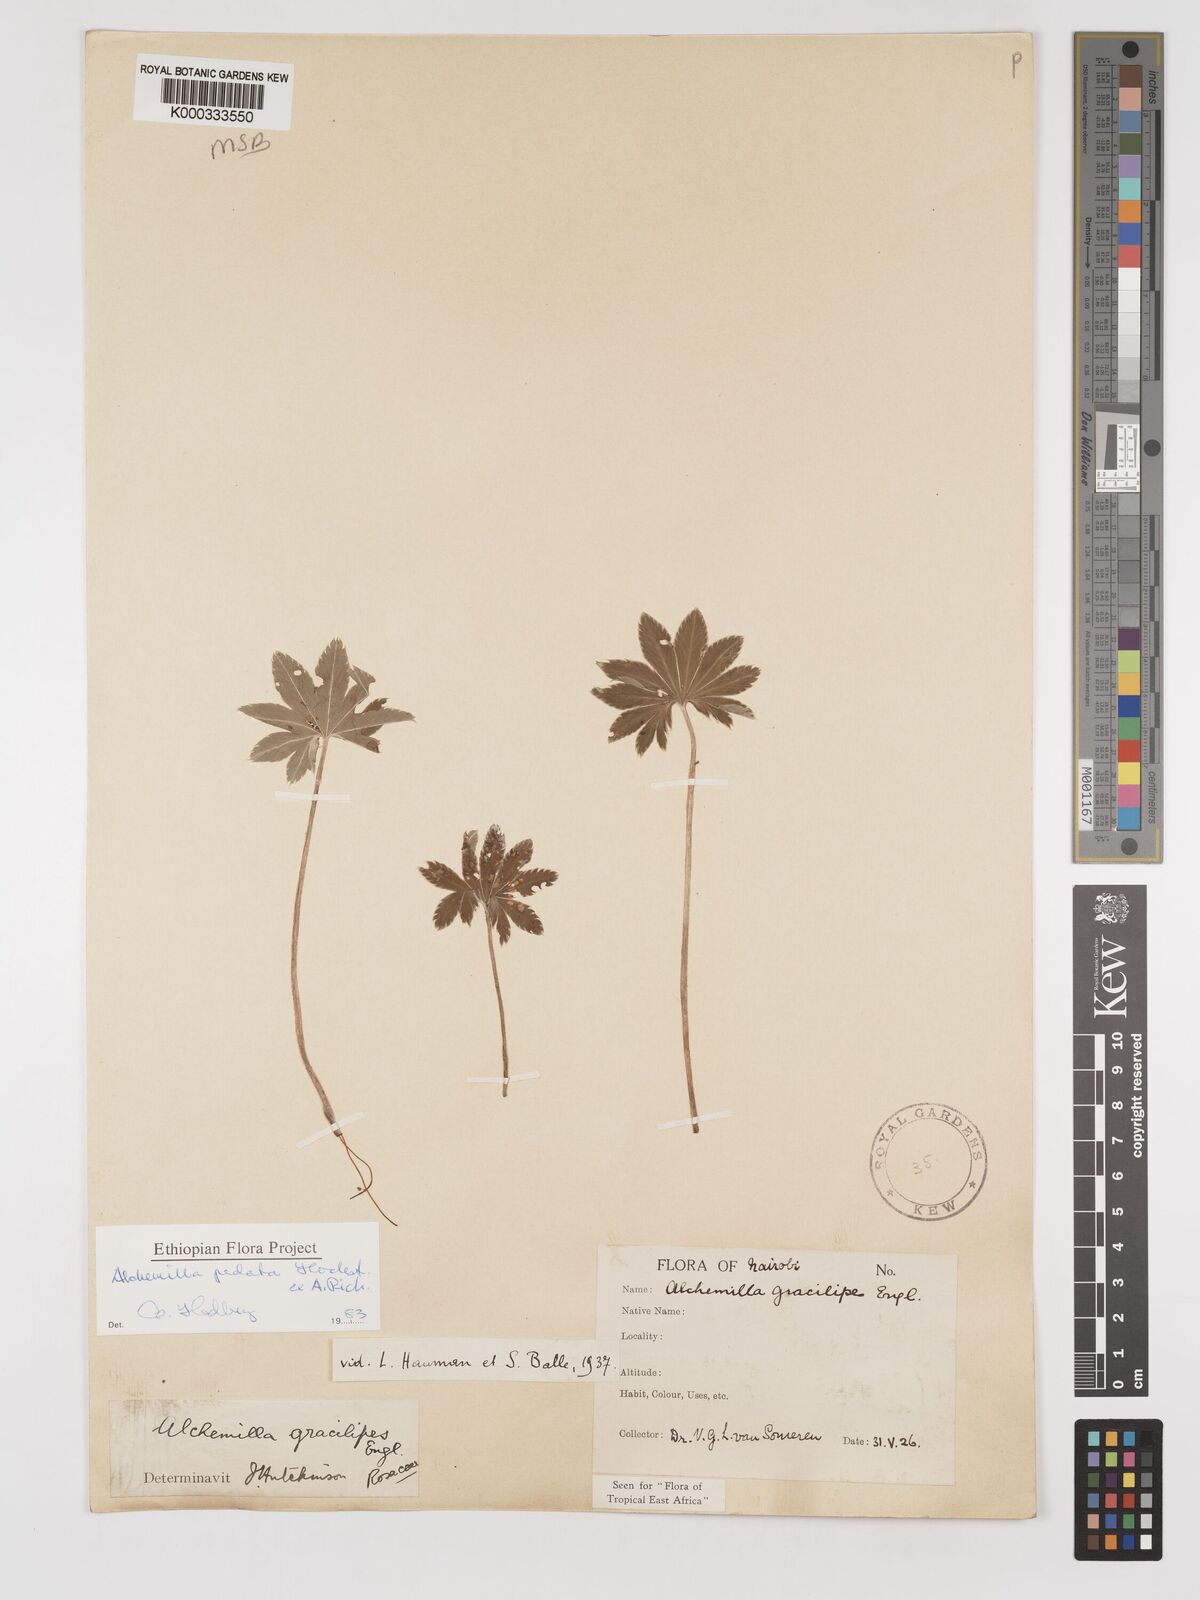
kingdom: Plantae
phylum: Tracheophyta
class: Magnoliopsida
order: Rosales
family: Rosaceae
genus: Alchemilla
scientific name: Alchemilla pedata
